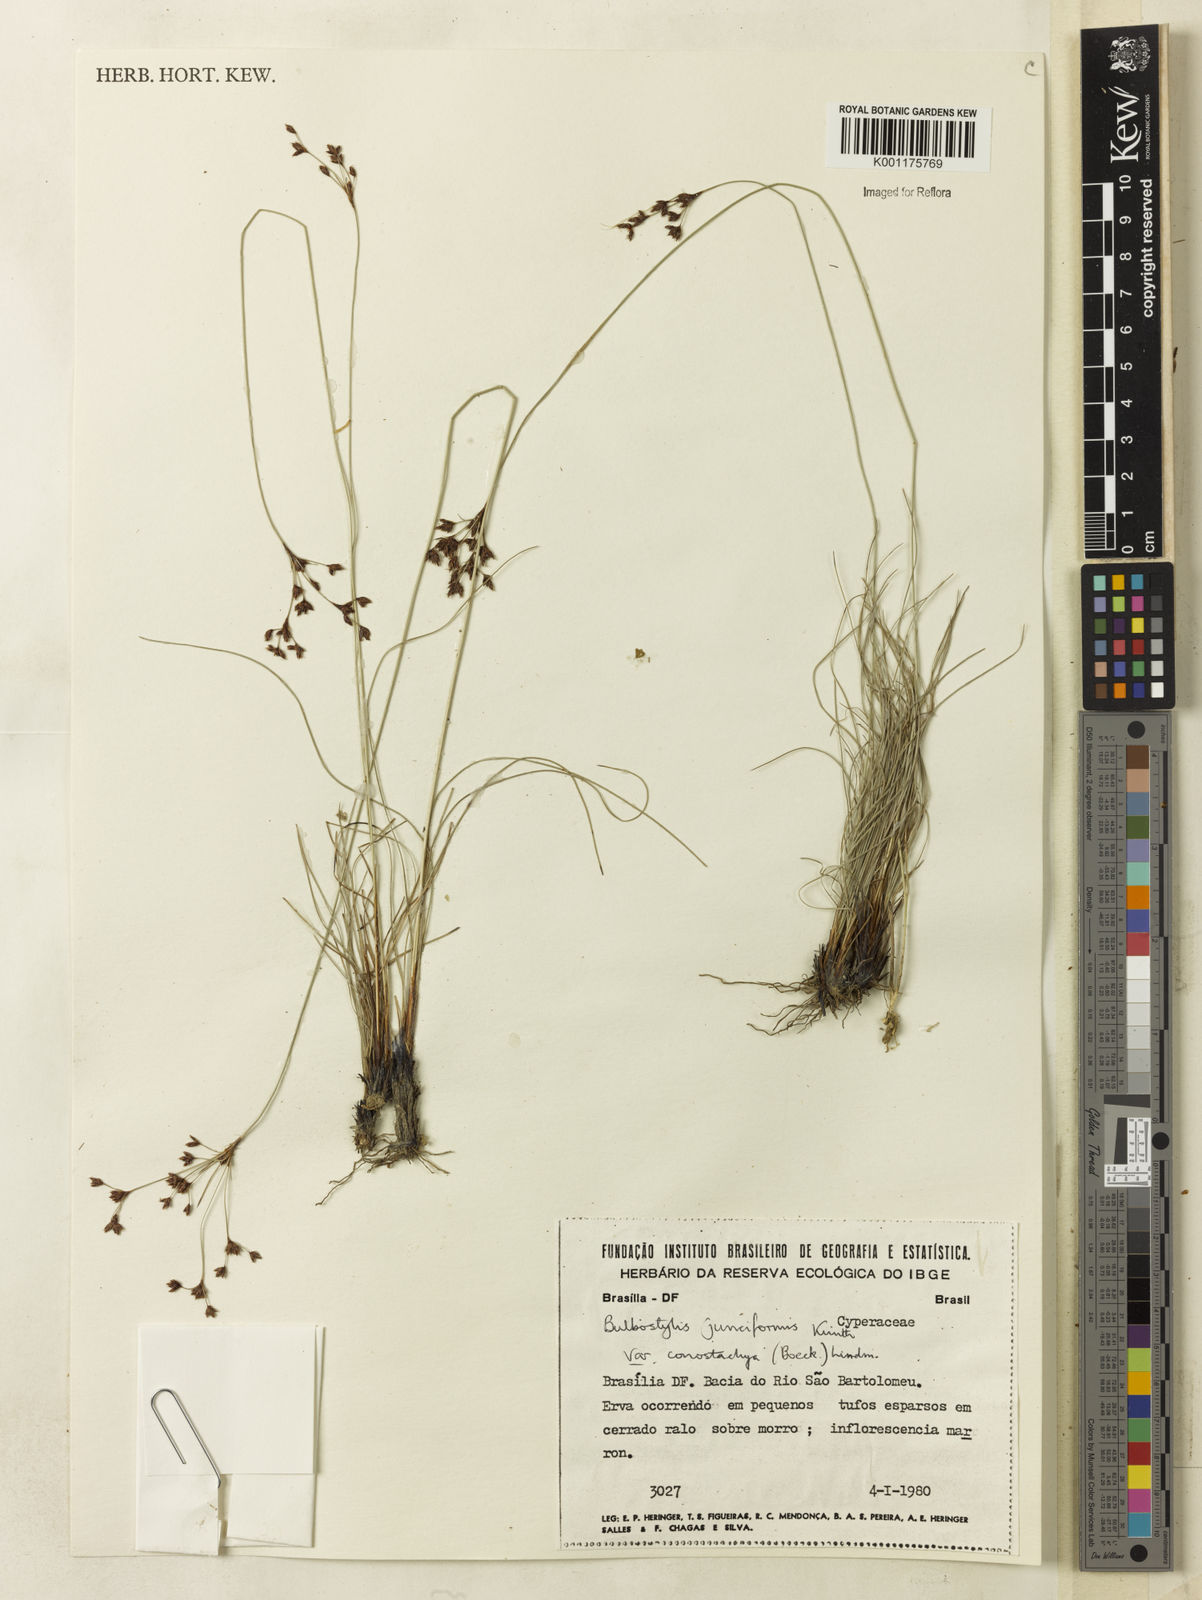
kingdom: Plantae
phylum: Tracheophyta
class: Liliopsida
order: Poales
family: Cyperaceae
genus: Bulbostylis
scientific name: Bulbostylis junciformis
